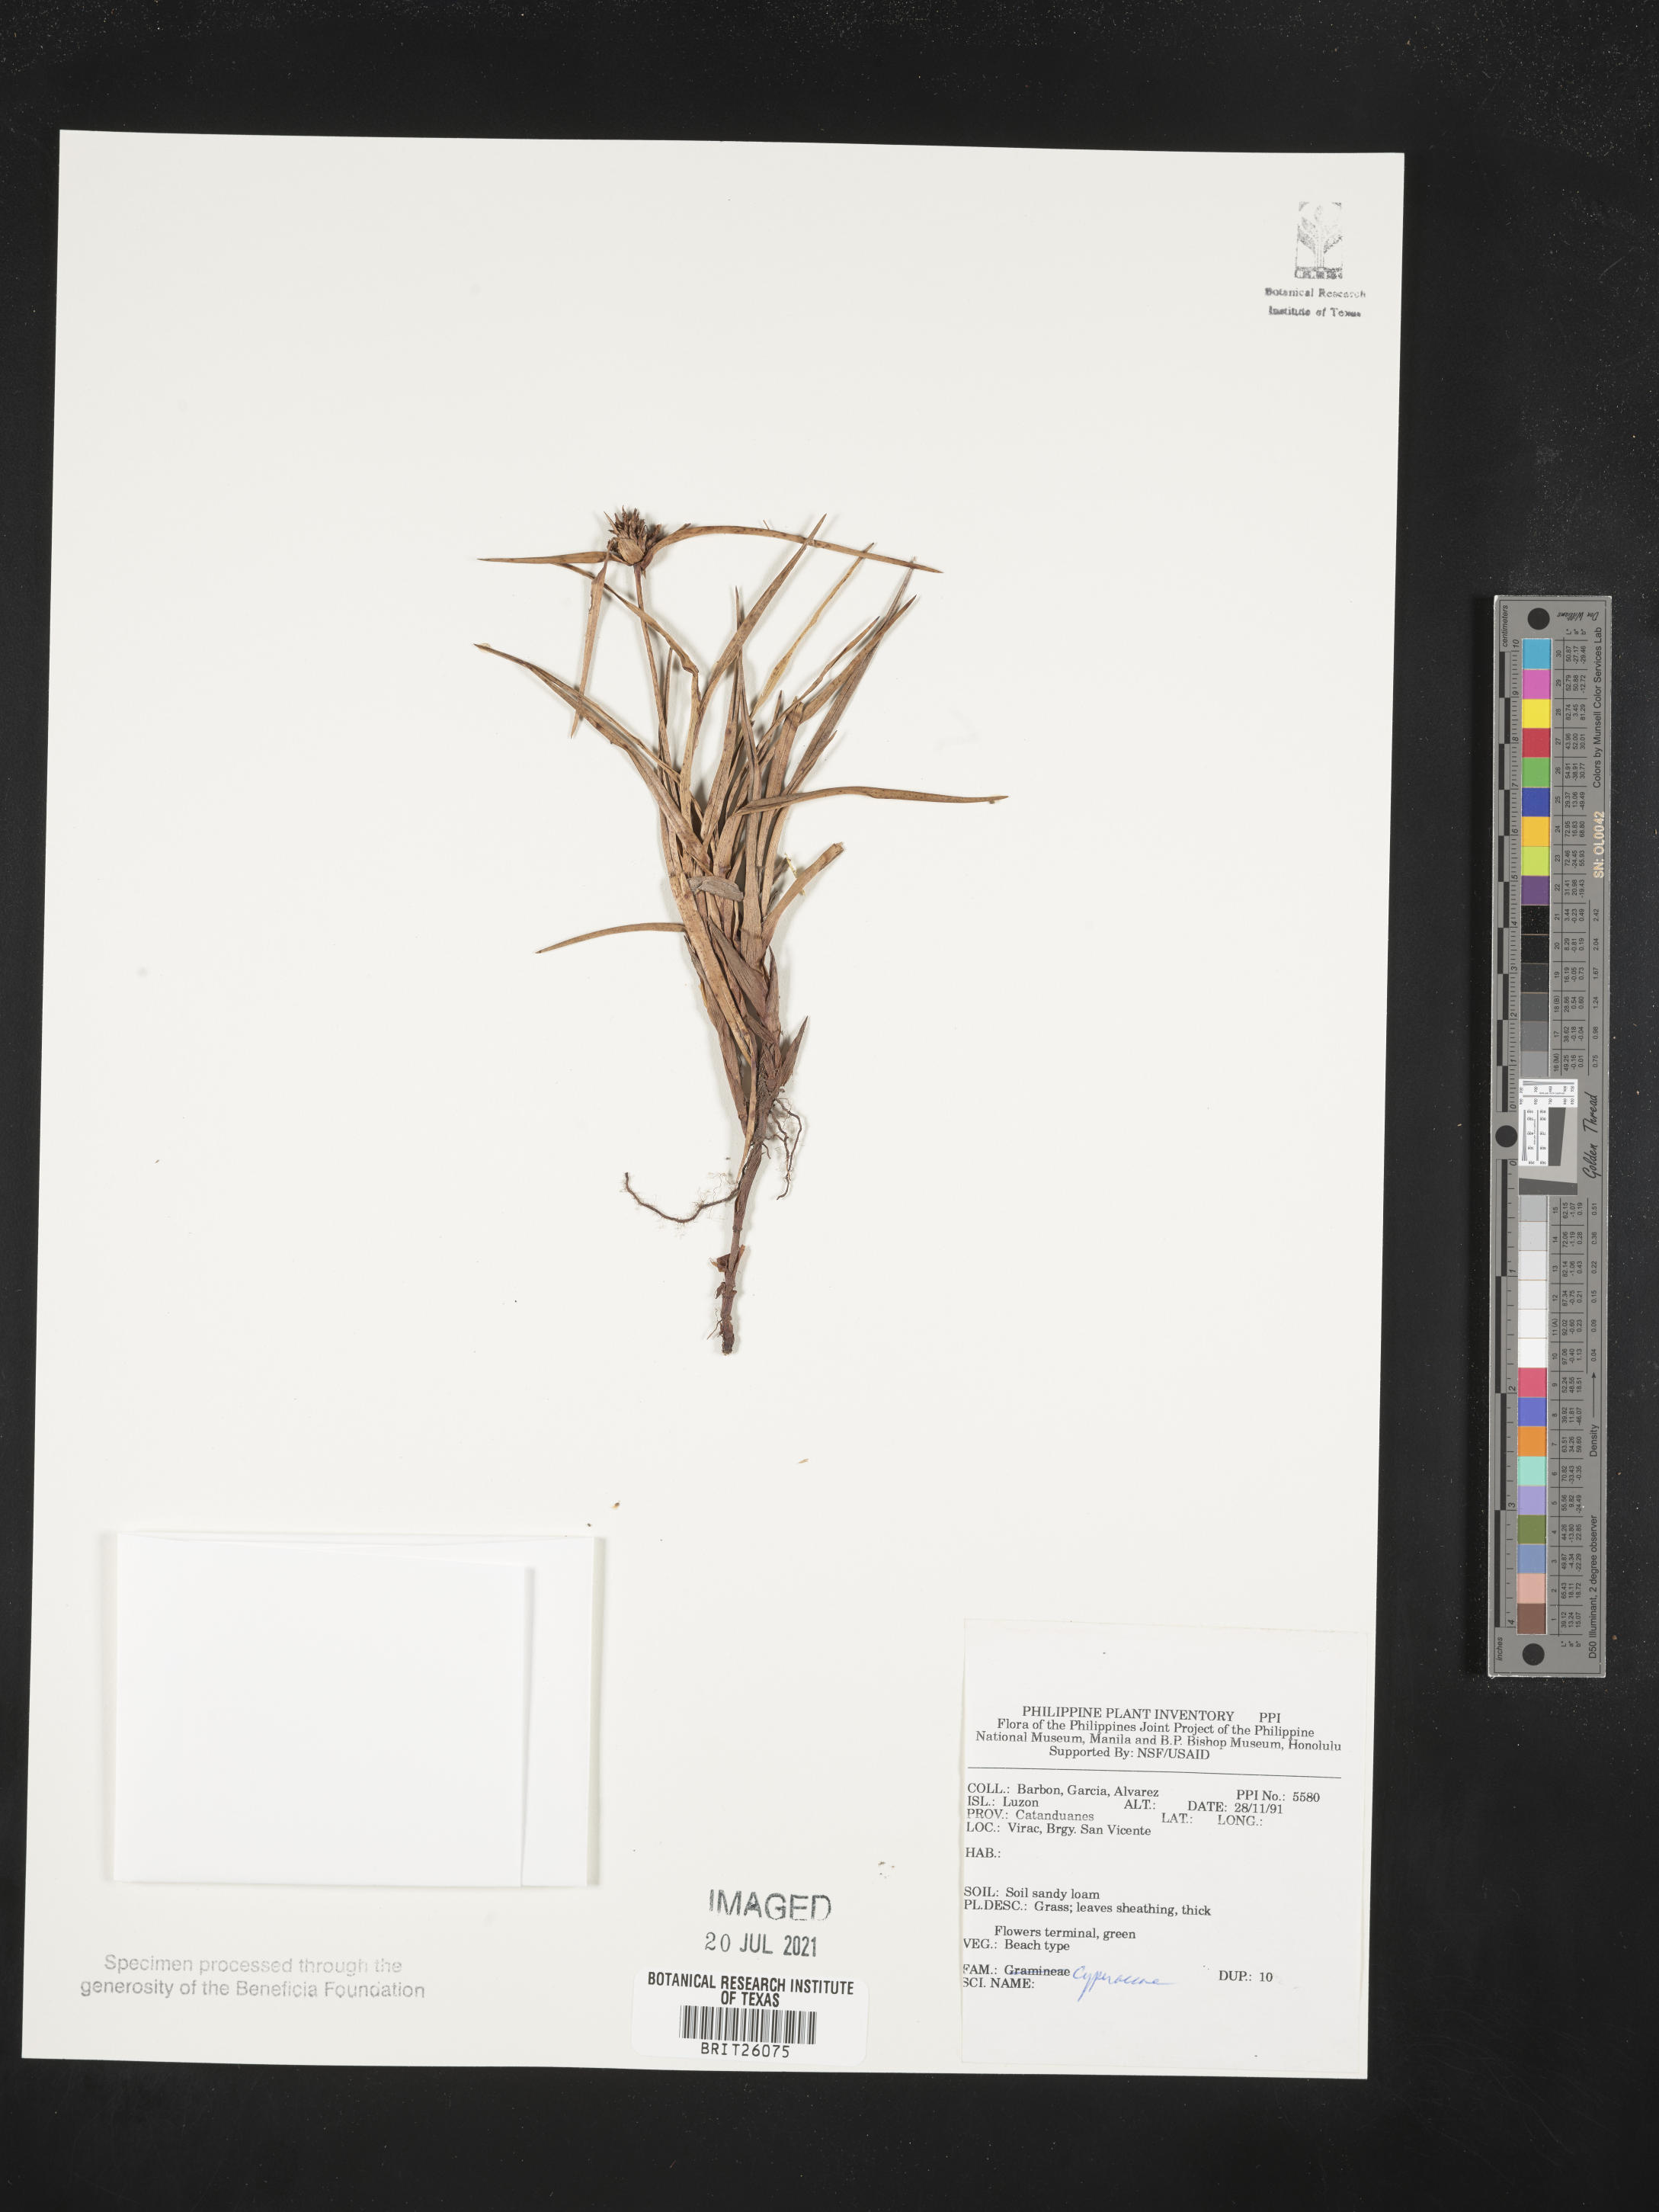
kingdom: Plantae
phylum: Tracheophyta
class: Liliopsida
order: Poales
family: Cyperaceae
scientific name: Cyperaceae
